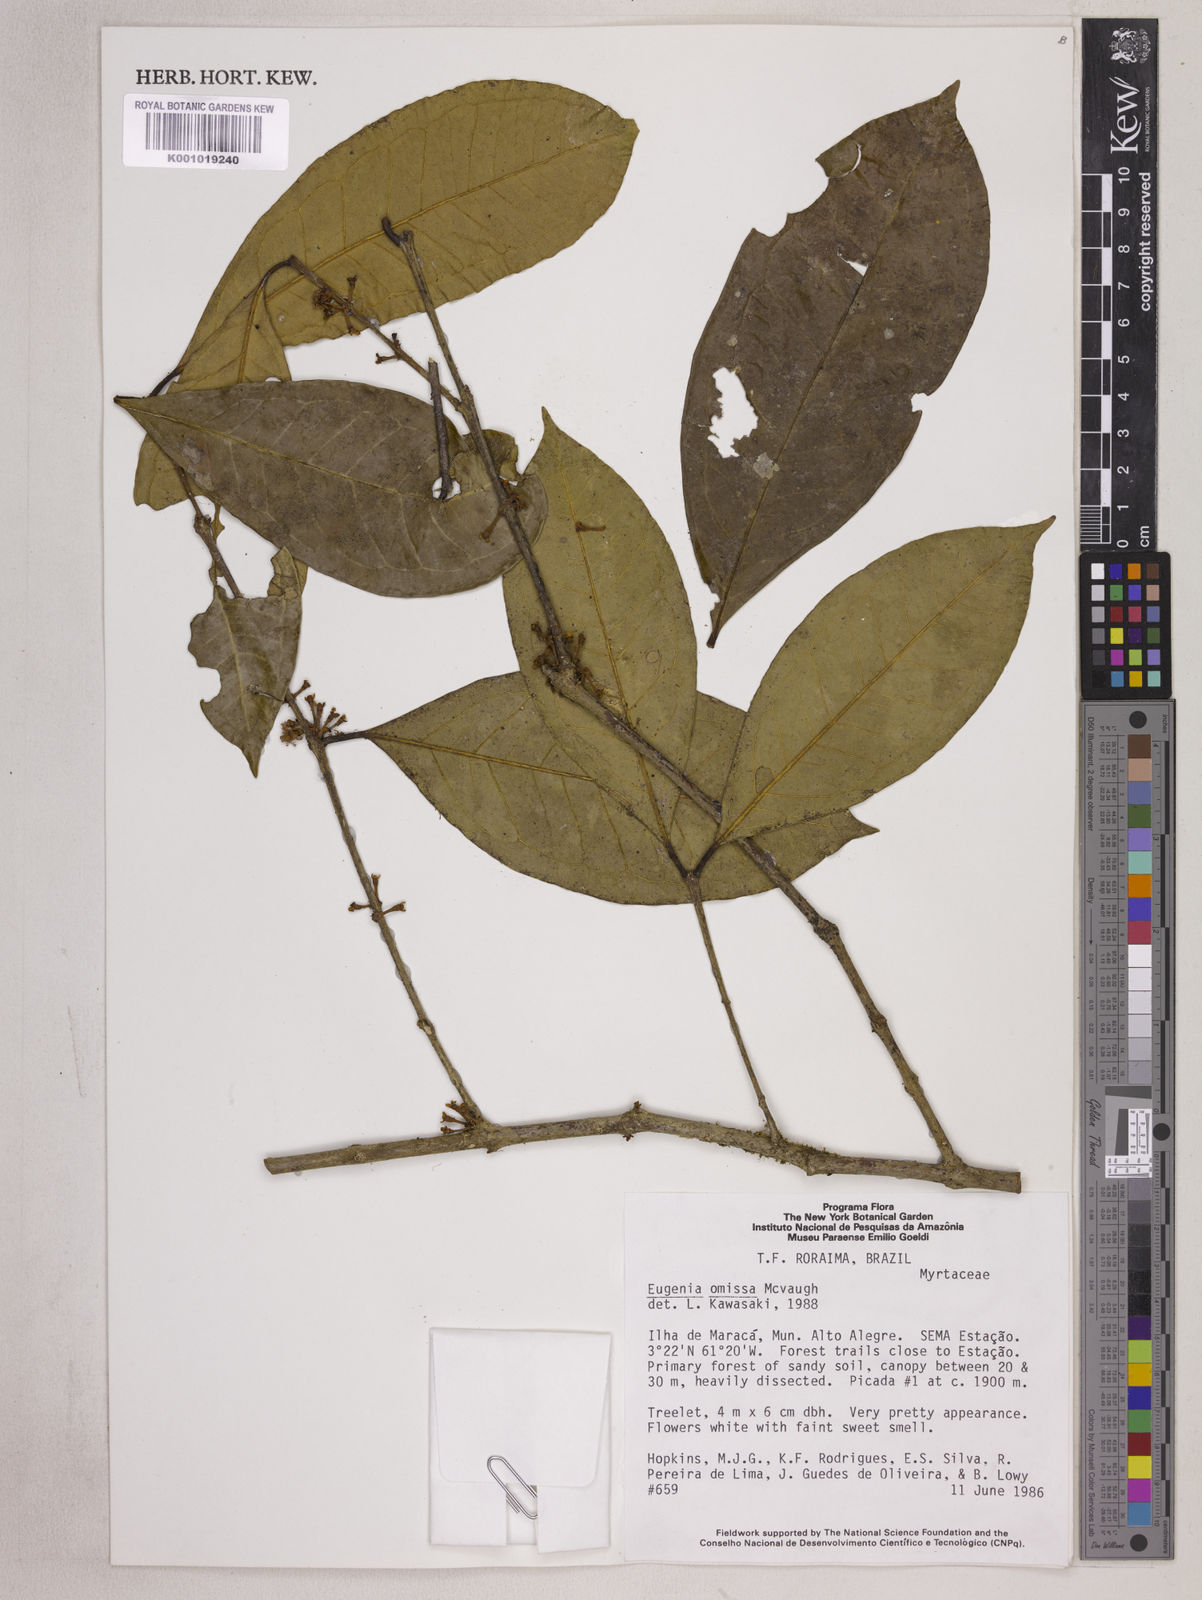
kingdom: Plantae
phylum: Tracheophyta
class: Magnoliopsida
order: Myrtales
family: Myrtaceae
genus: Eugenia
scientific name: Eugenia omissa
